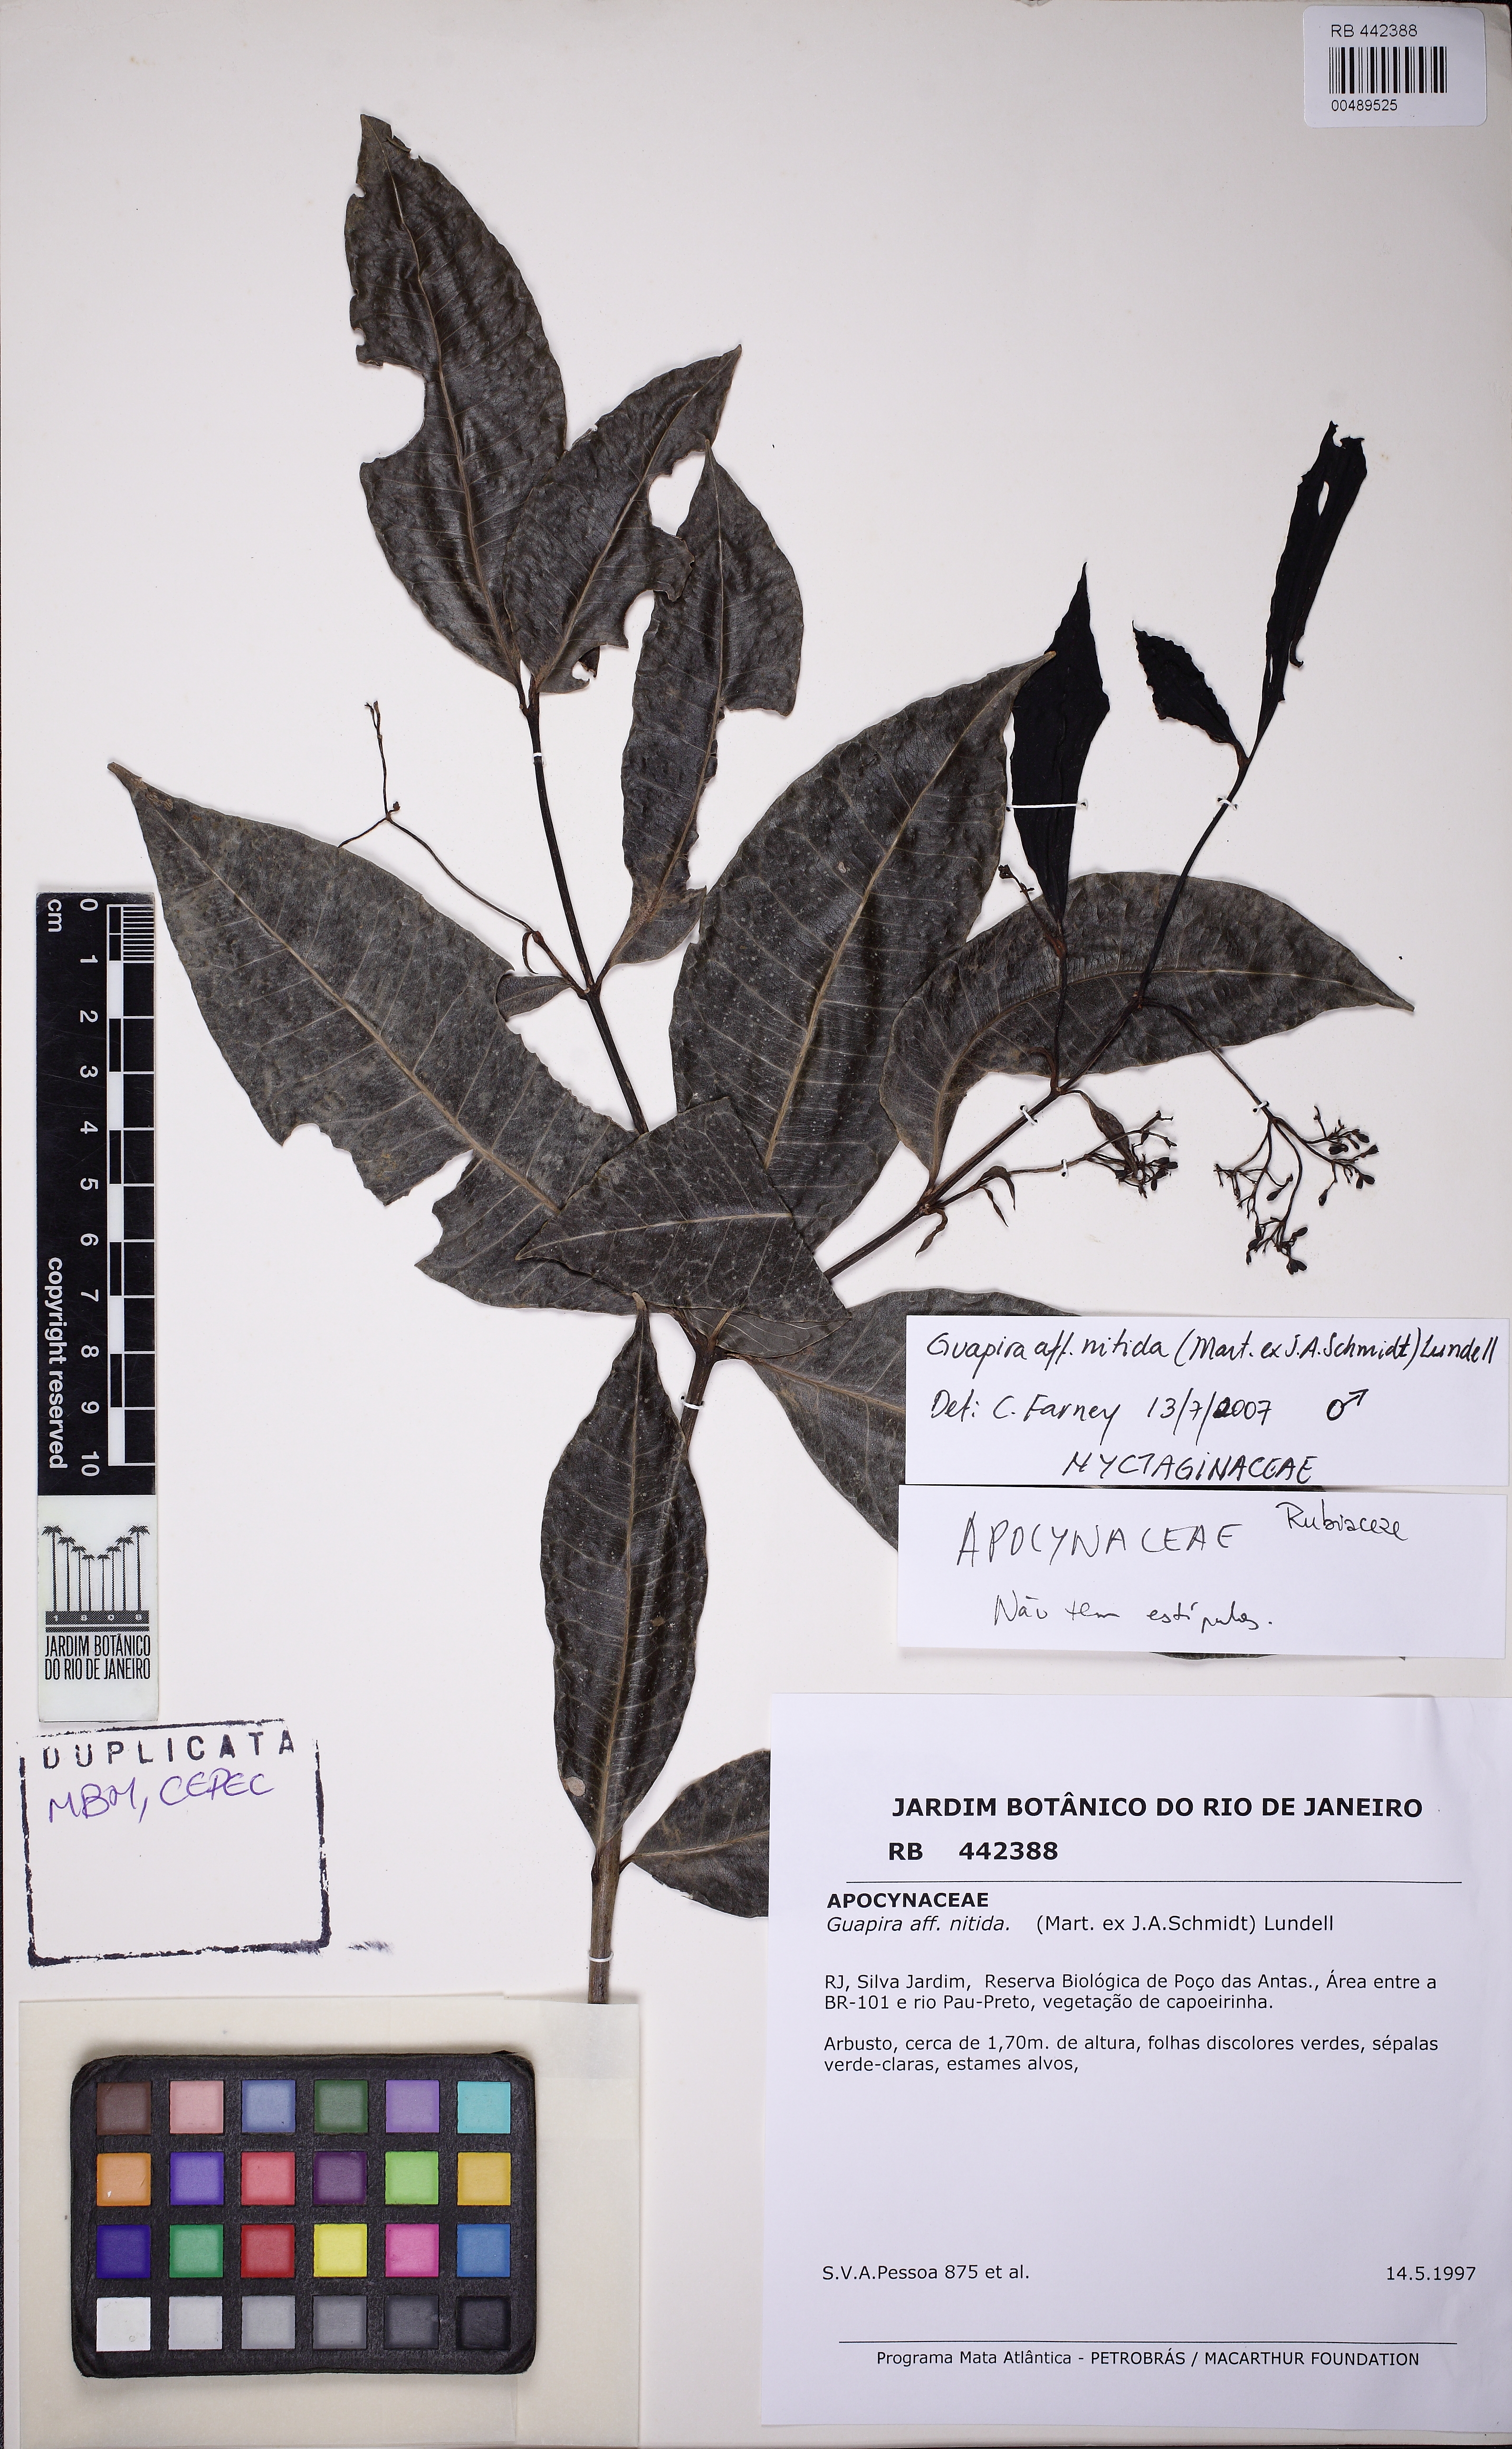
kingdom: Plantae
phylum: Tracheophyta
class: Magnoliopsida
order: Caryophyllales
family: Nyctaginaceae
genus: Guapira
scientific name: Guapira nitida
